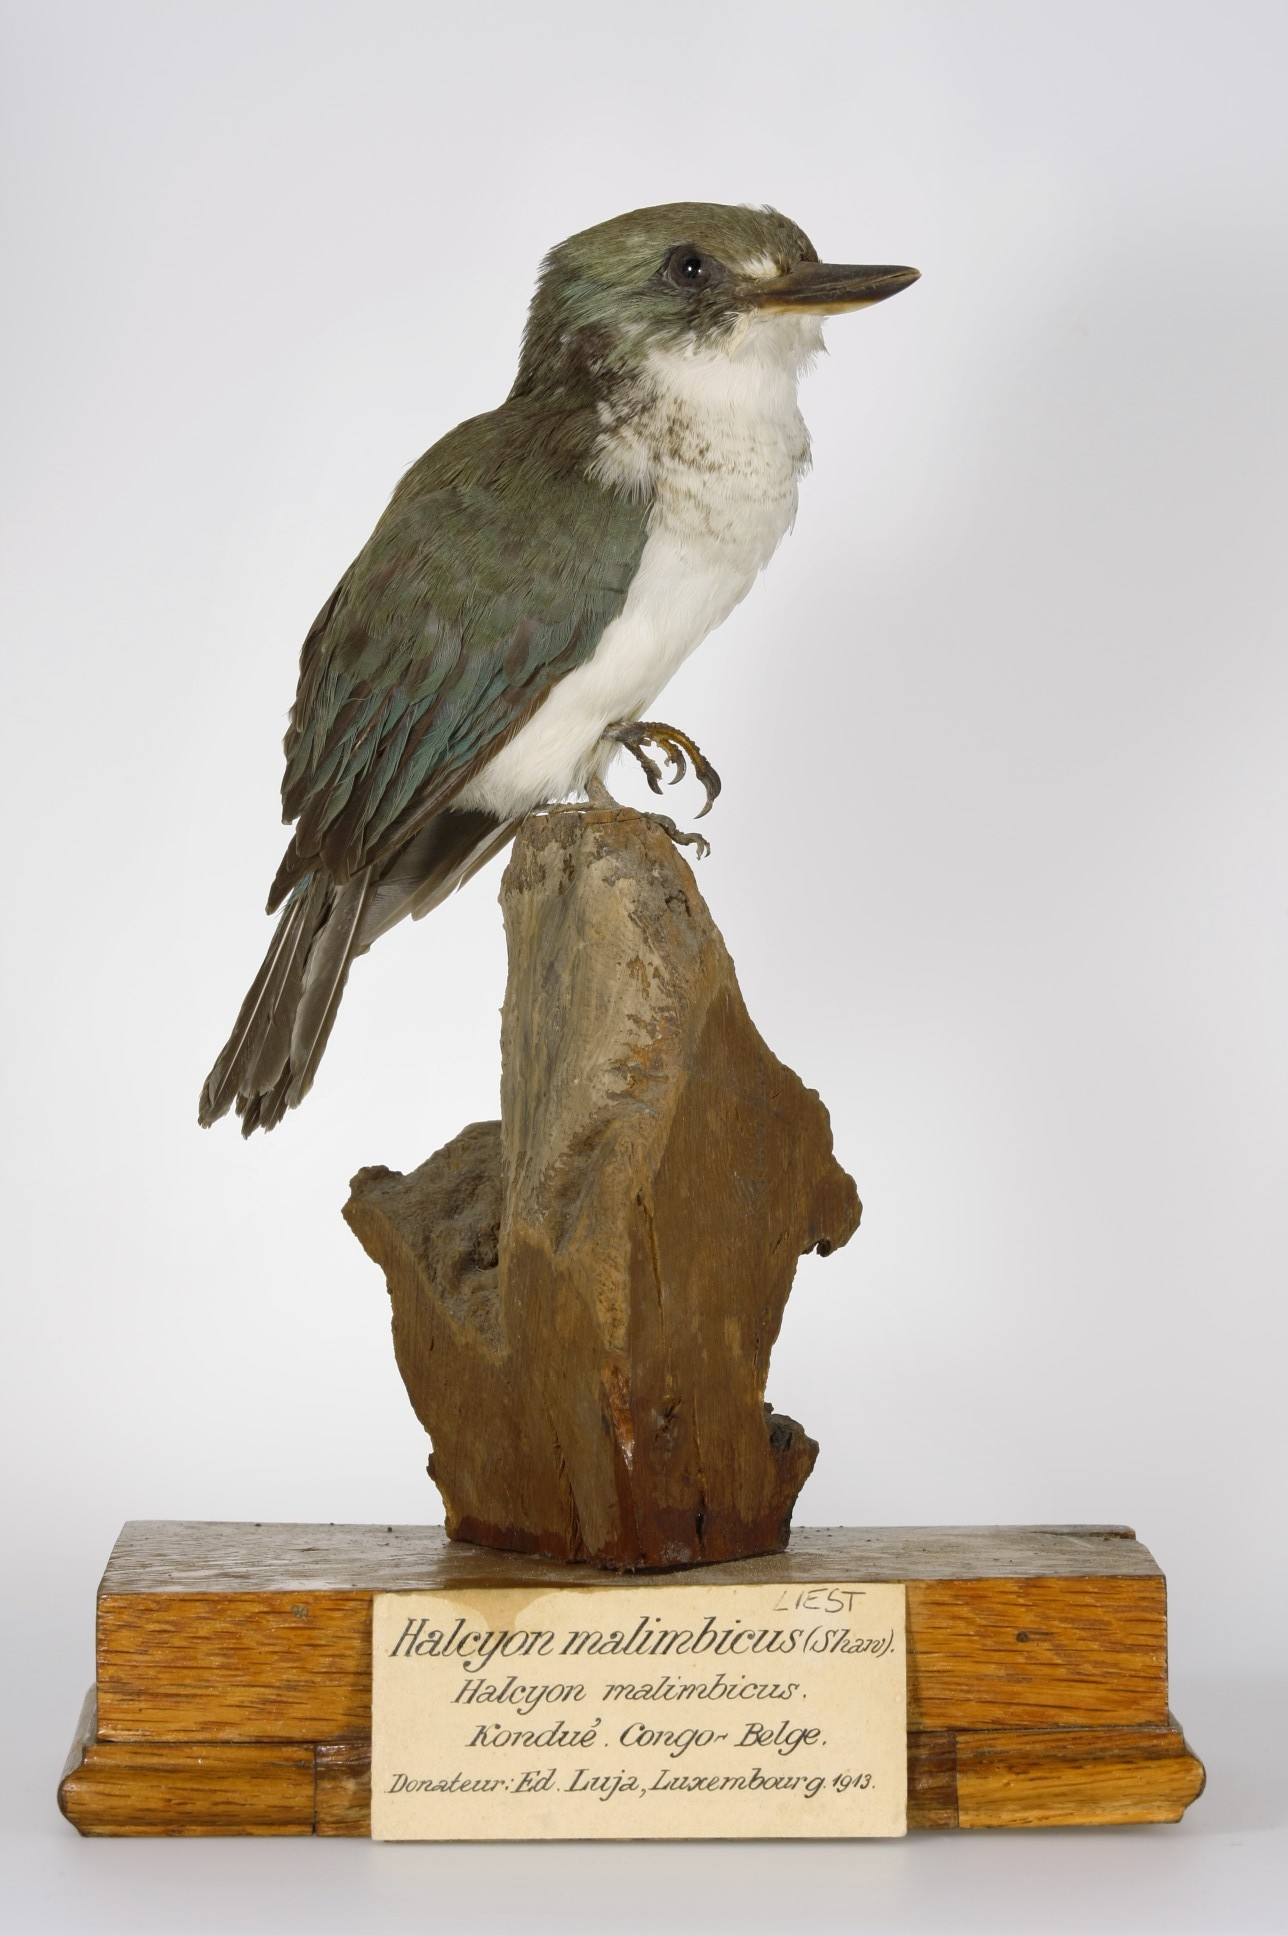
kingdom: Animalia
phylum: Chordata
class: Aves
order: Coraciiformes
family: Alcedinidae
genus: Todiramphus
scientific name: Todiramphus veneratus
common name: Society kingfisher
